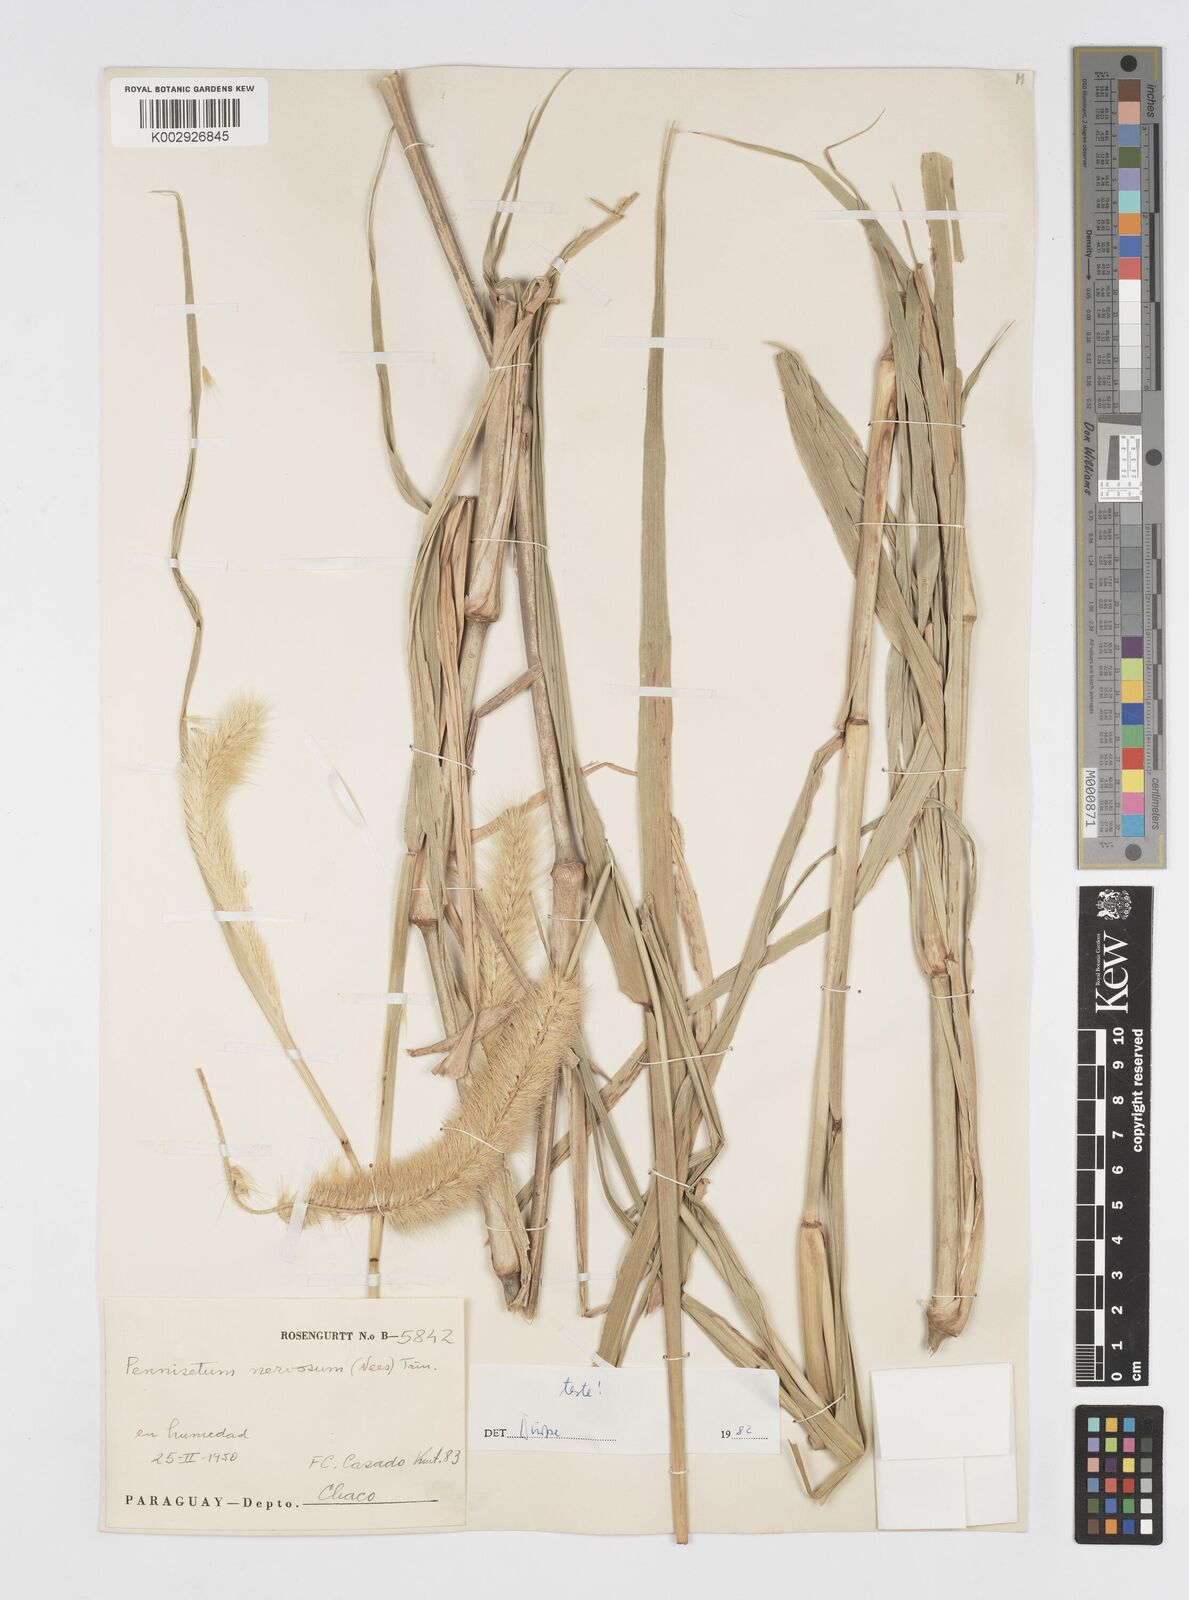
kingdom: Plantae
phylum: Tracheophyta
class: Liliopsida
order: Poales
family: Poaceae
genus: Cenchrus
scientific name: Cenchrus nervosus
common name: Bentspike fountaingrass
